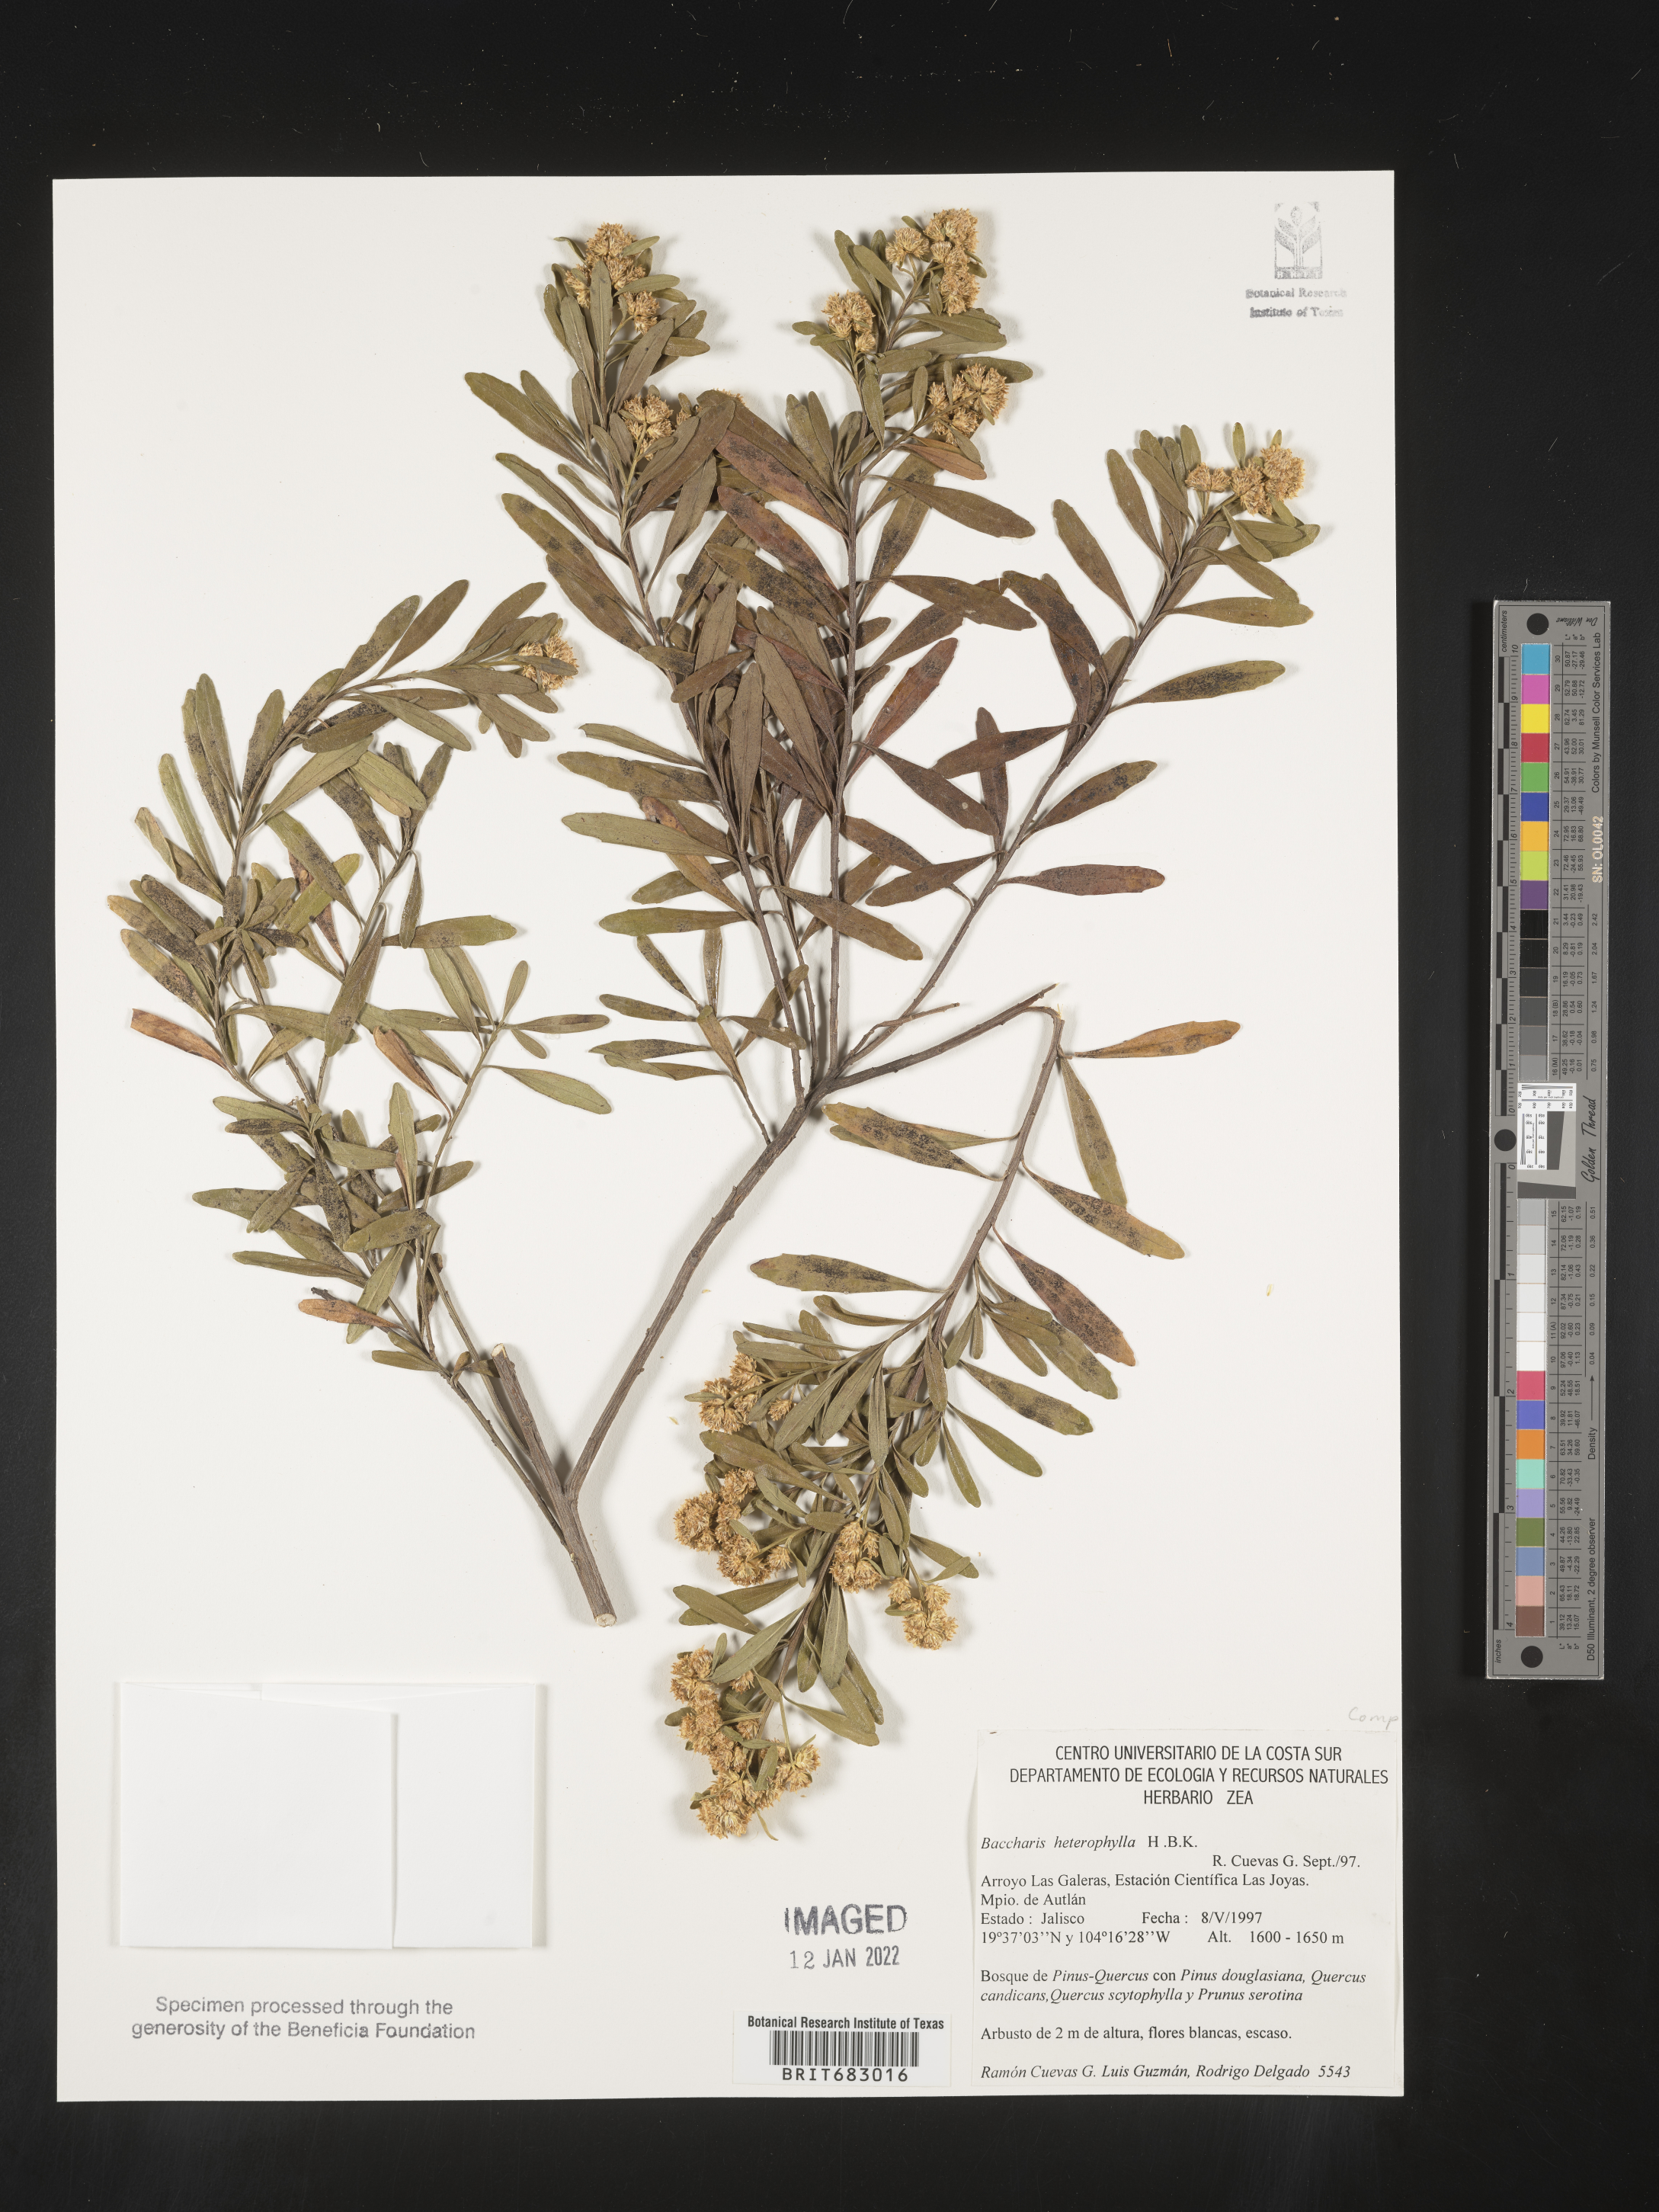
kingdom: Plantae
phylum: Tracheophyta
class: Magnoliopsida
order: Asterales
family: Asteraceae
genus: Baccharis
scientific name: Baccharis microdonta
